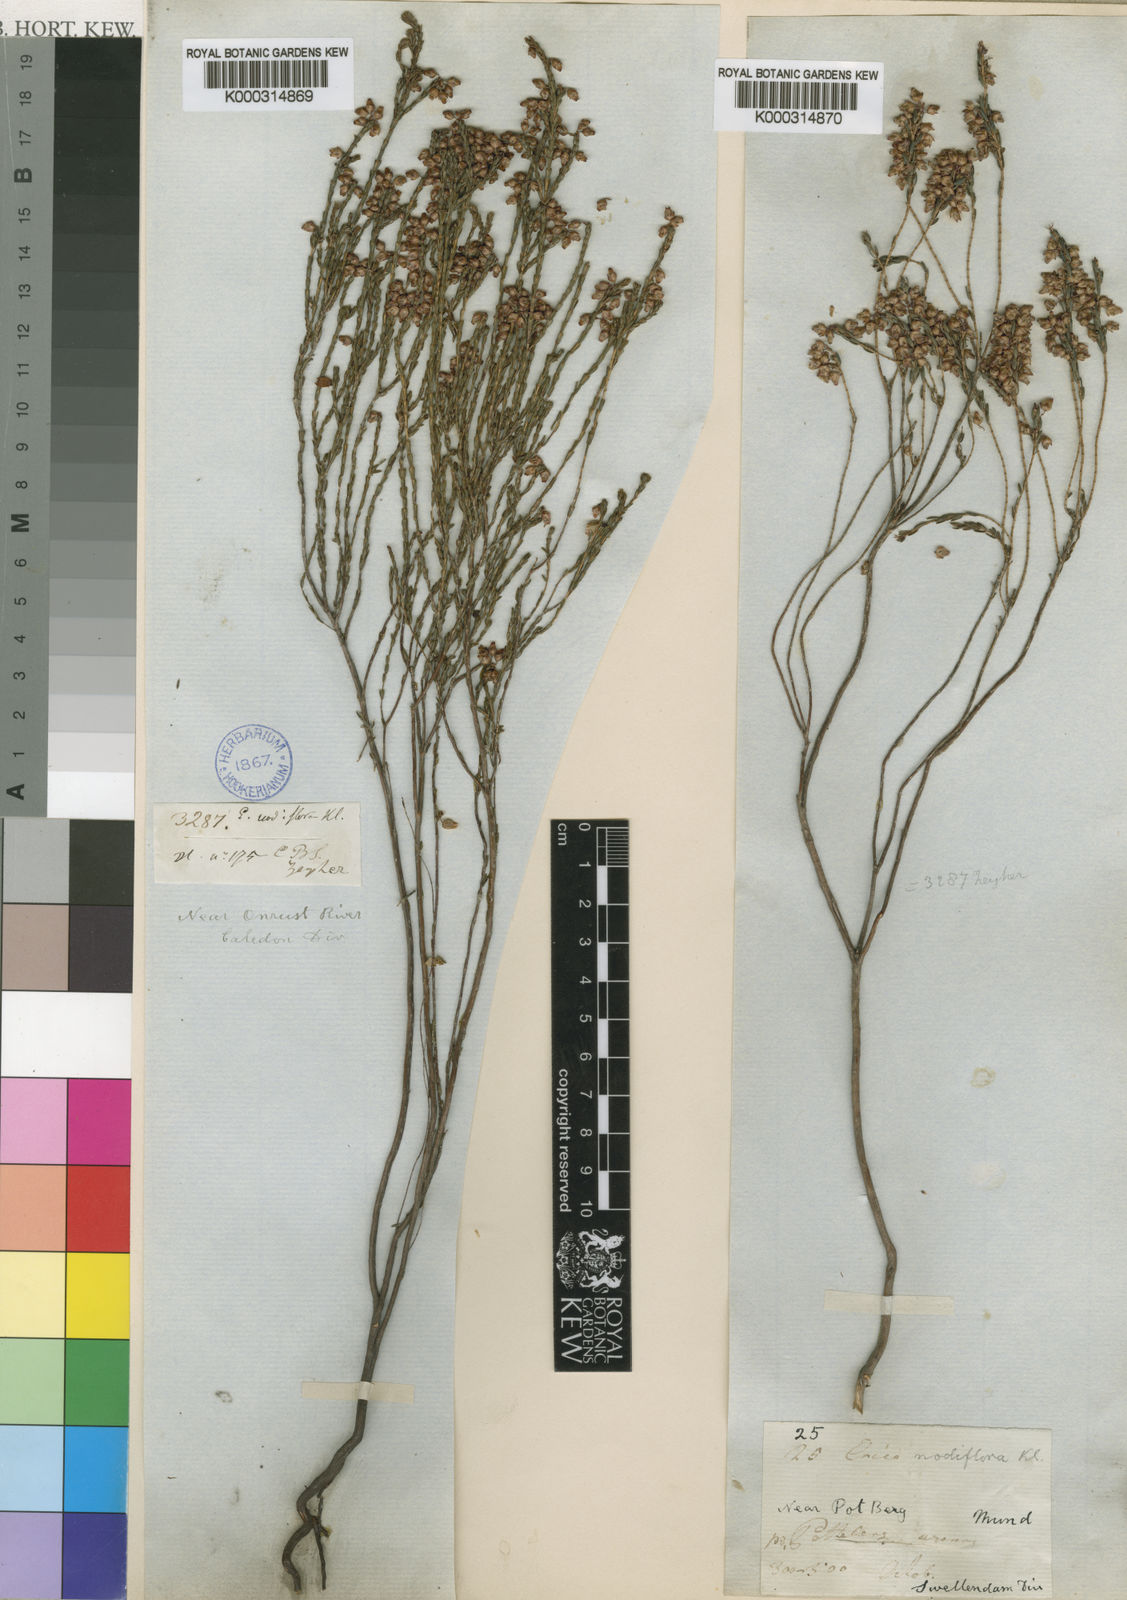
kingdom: Plantae
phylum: Tracheophyta
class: Magnoliopsida
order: Ericales
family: Ericaceae
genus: Erica
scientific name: Erica
